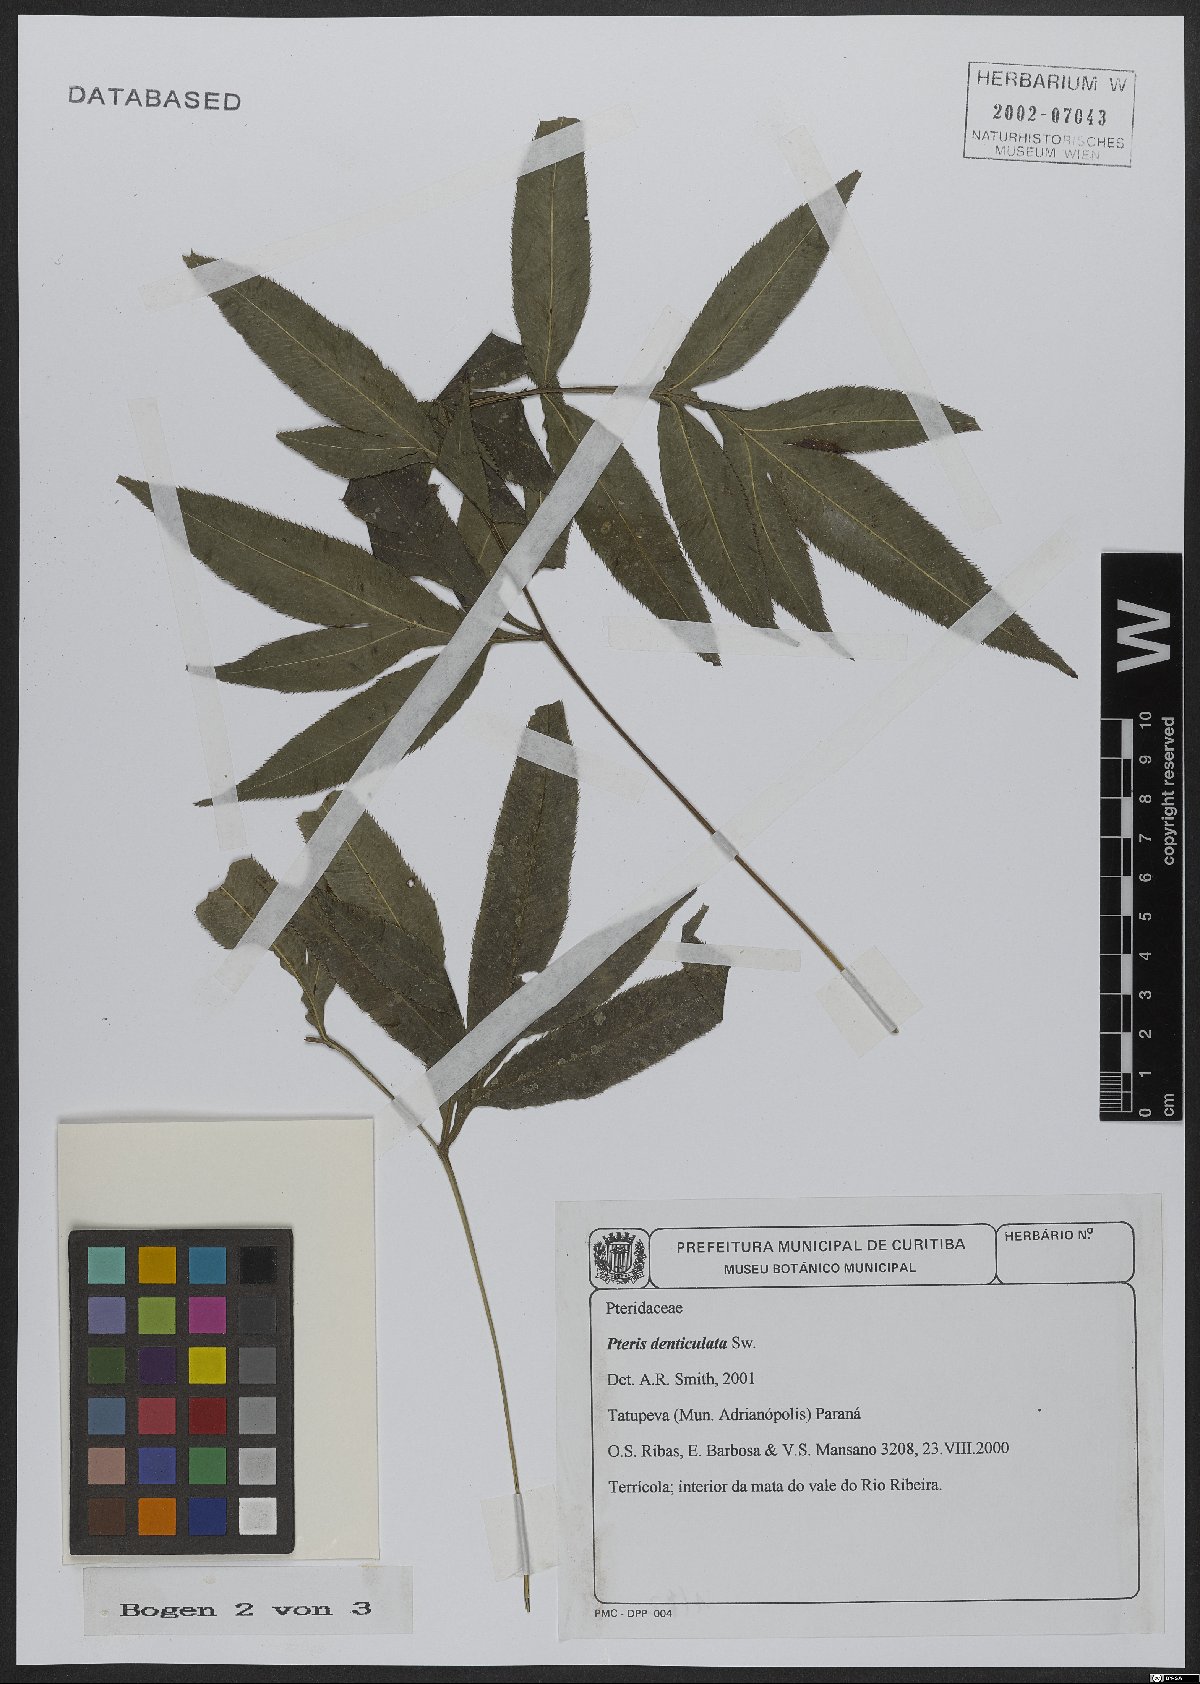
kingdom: Plantae
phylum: Tracheophyta
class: Polypodiopsida
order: Polypodiales
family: Pteridaceae
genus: Pteris
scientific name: Pteris denticulata
